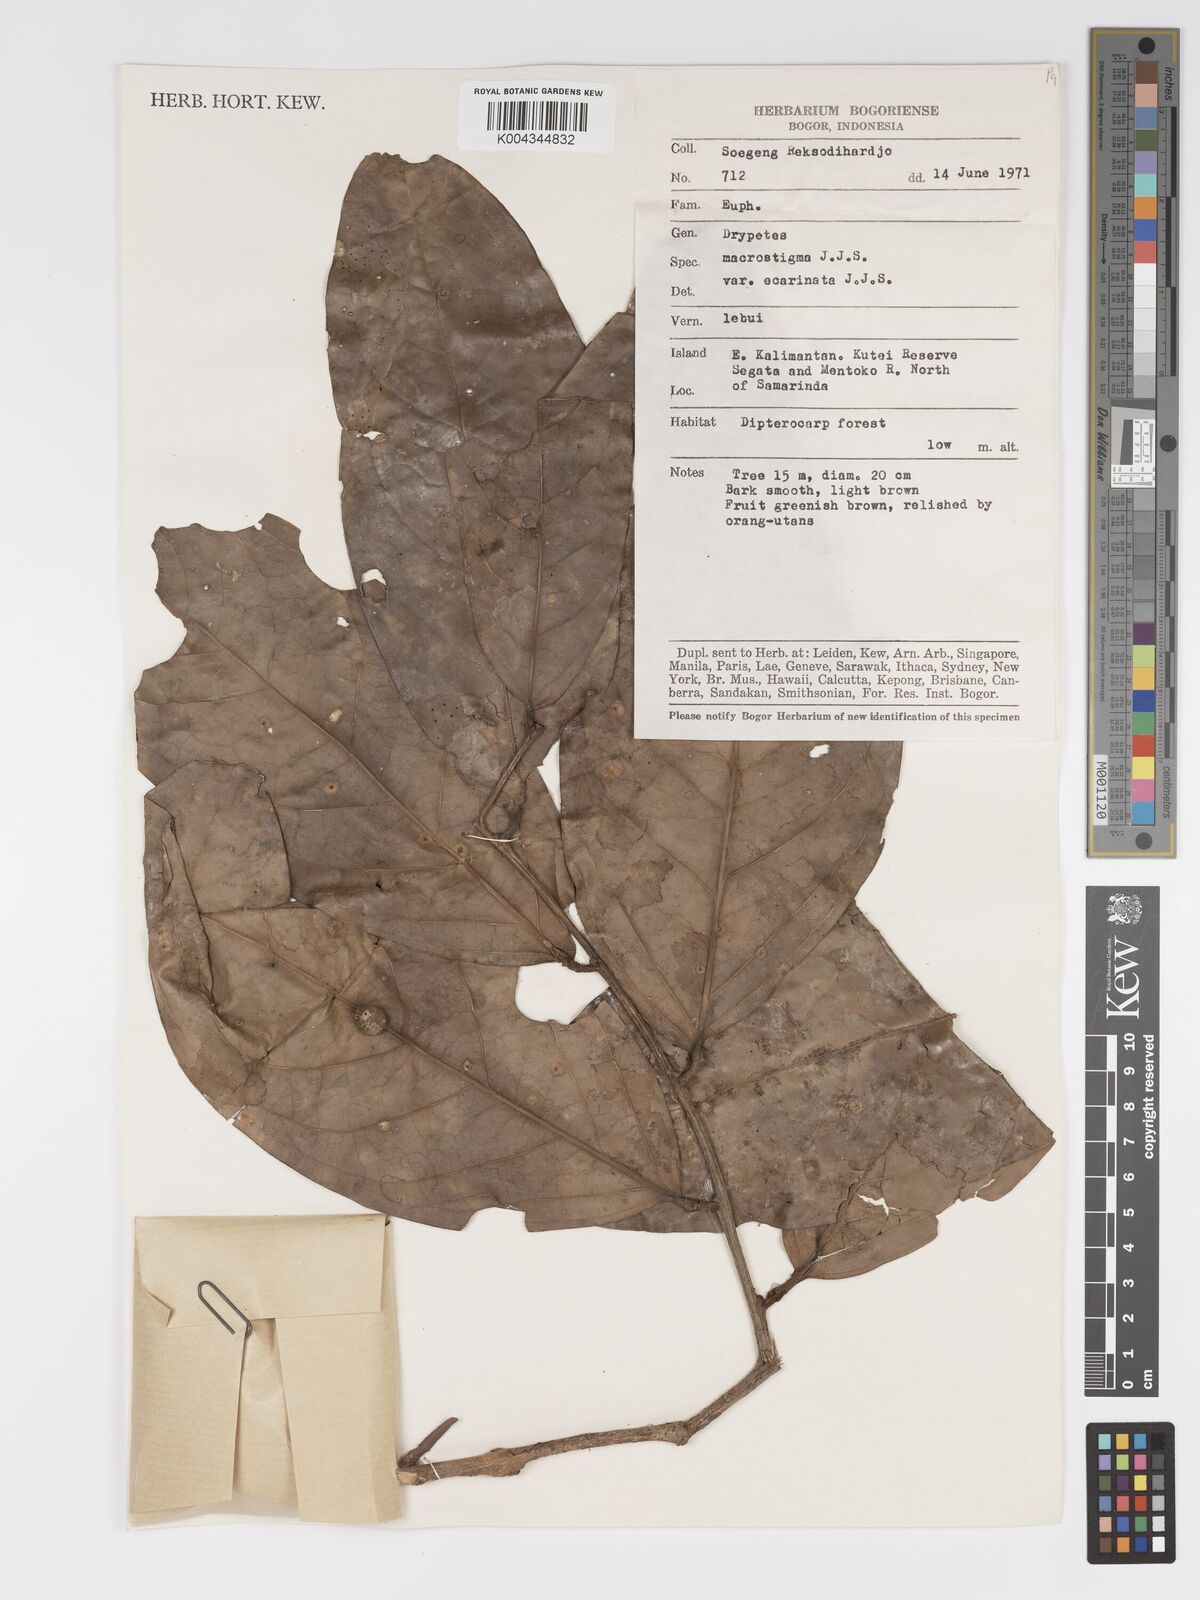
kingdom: Plantae
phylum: Tracheophyta
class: Magnoliopsida
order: Malpighiales
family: Putranjivaceae
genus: Drypetes
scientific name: Drypetes macrostigma
